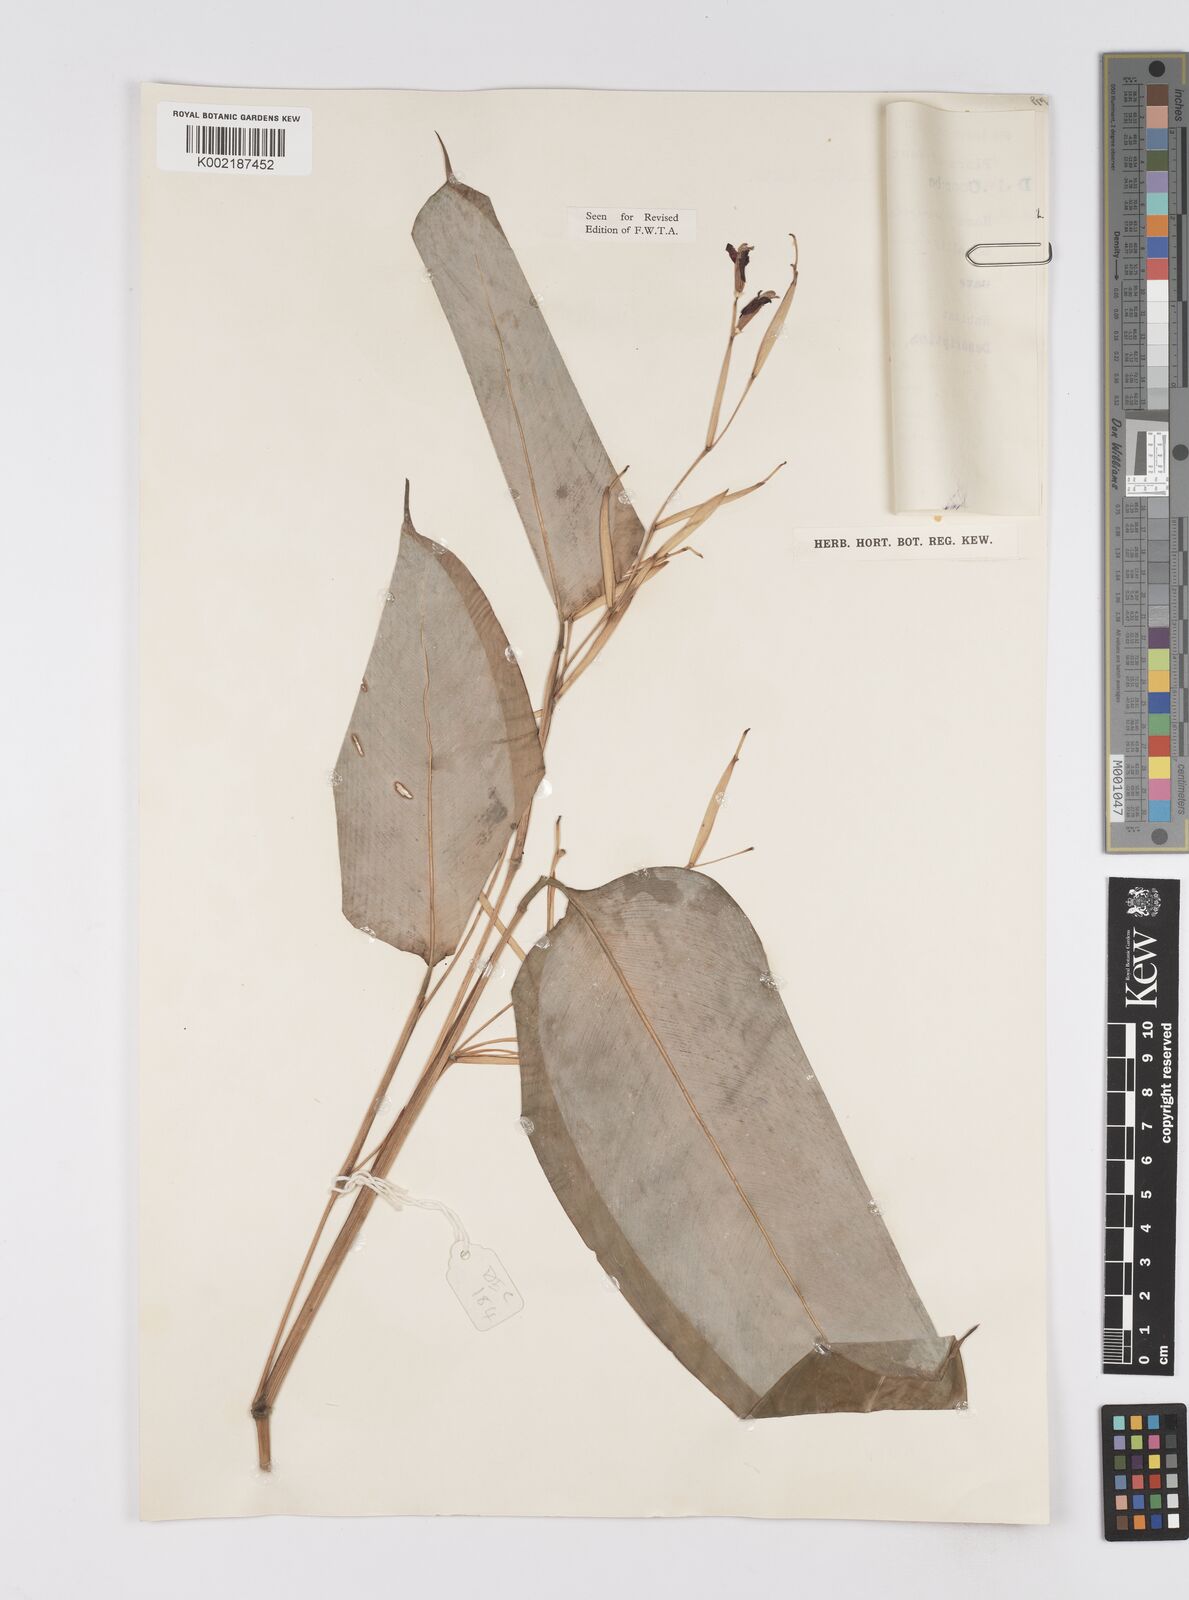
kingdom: Plantae
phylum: Tracheophyta
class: Liliopsida
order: Zingiberales
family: Marantaceae
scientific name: Marantaceae
